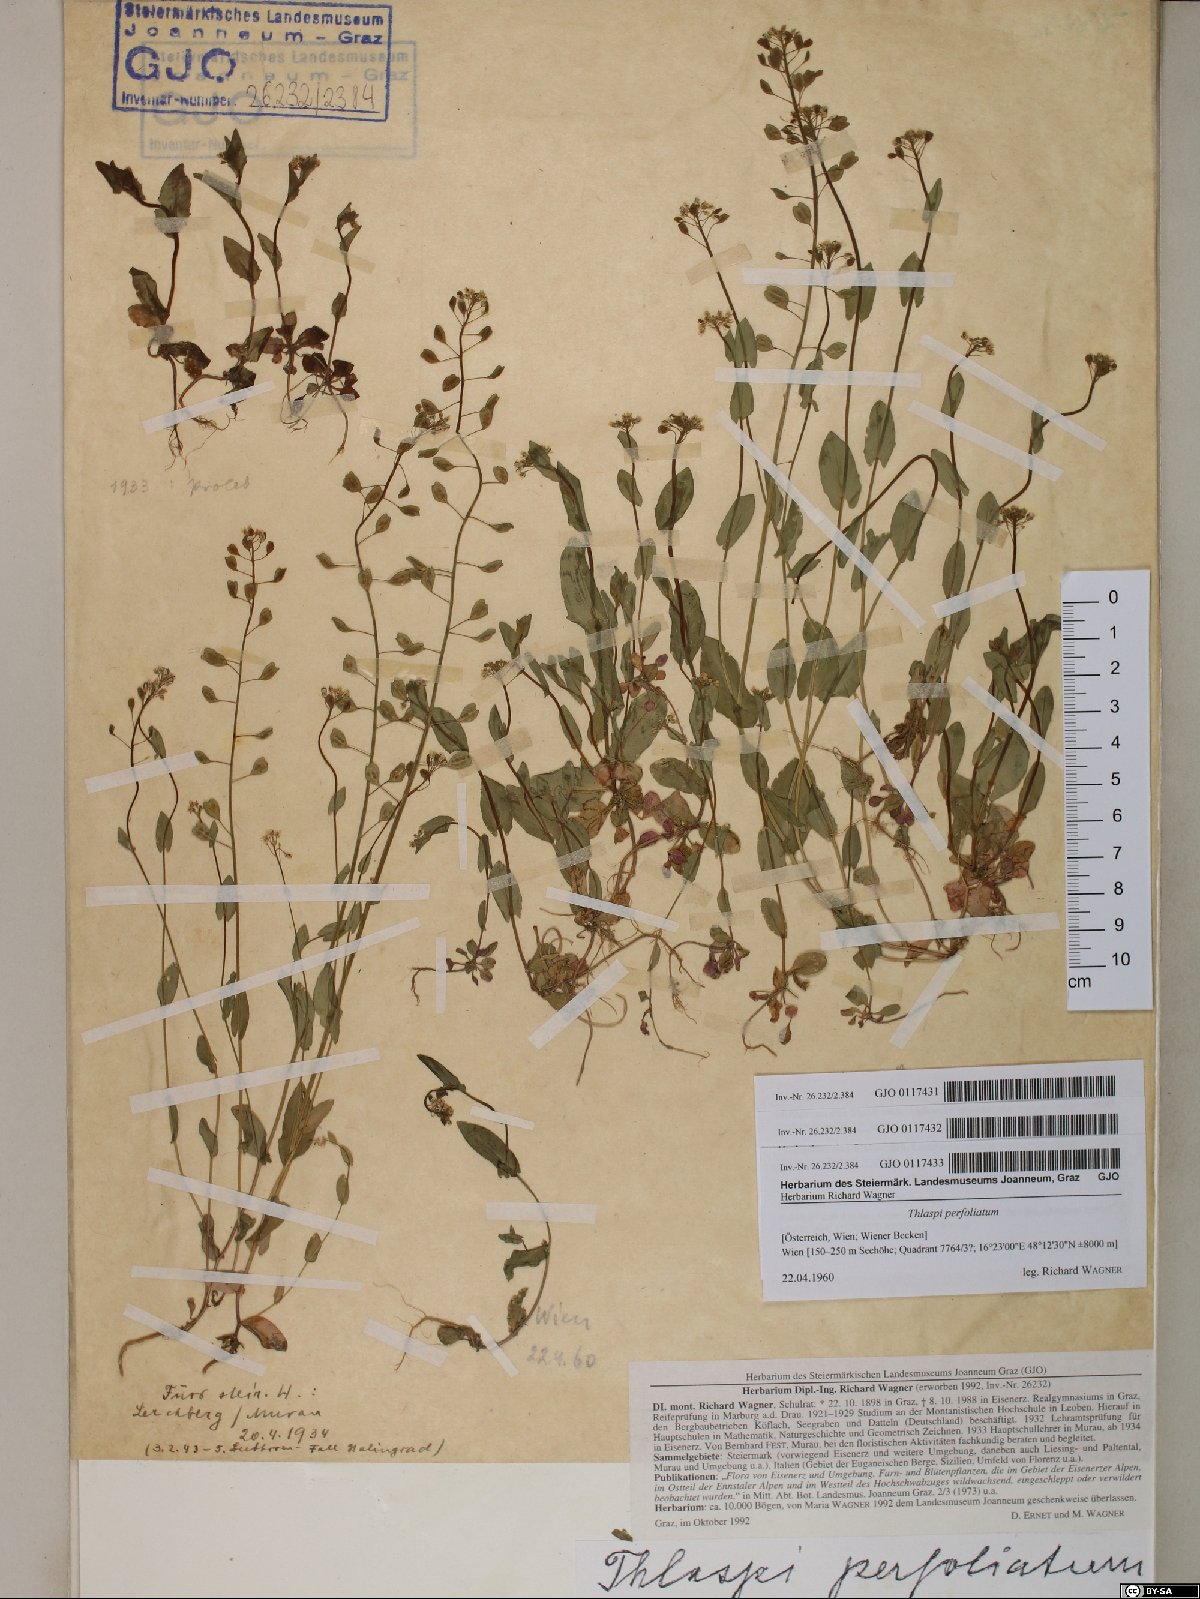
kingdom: Plantae
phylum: Tracheophyta
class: Magnoliopsida
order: Brassicales
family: Brassicaceae
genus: Noccaea
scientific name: Noccaea perfoliata
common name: Perfoliate pennycress
